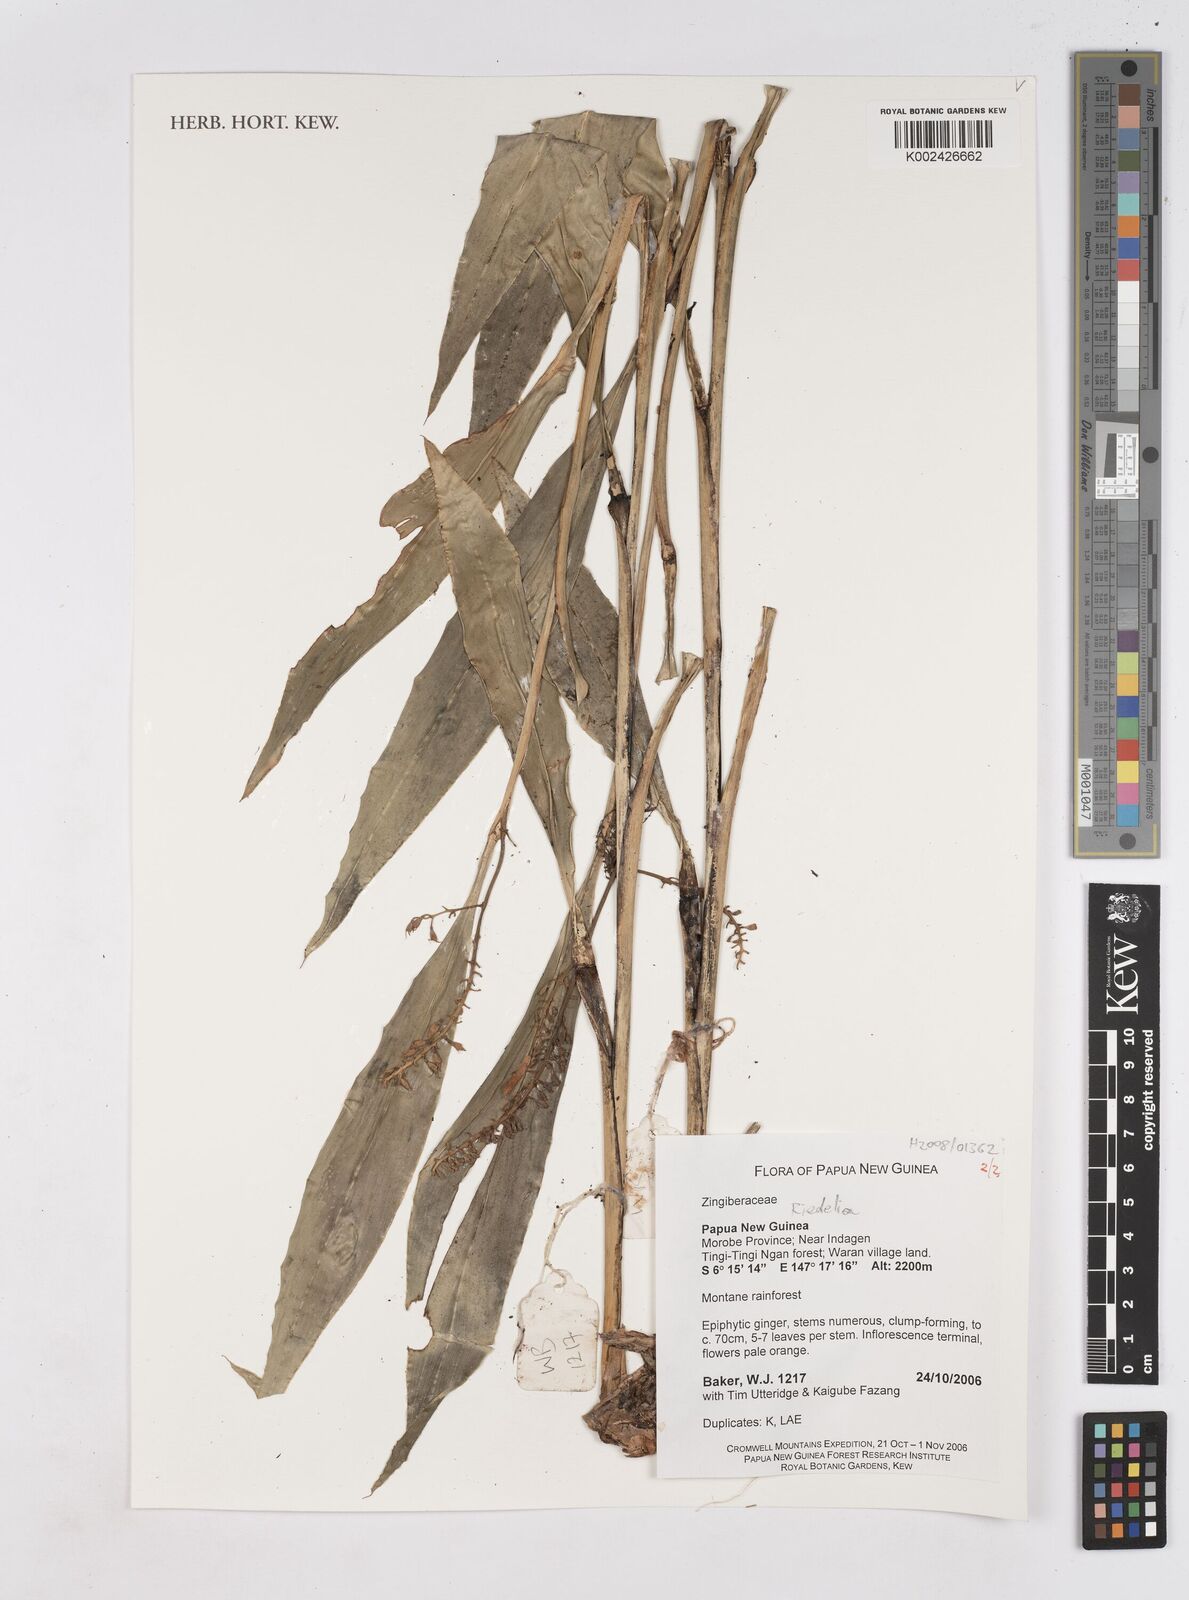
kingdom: Plantae
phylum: Tracheophyta
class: Liliopsida
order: Zingiberales
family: Zingiberaceae
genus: Riedelia
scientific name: Riedelia
